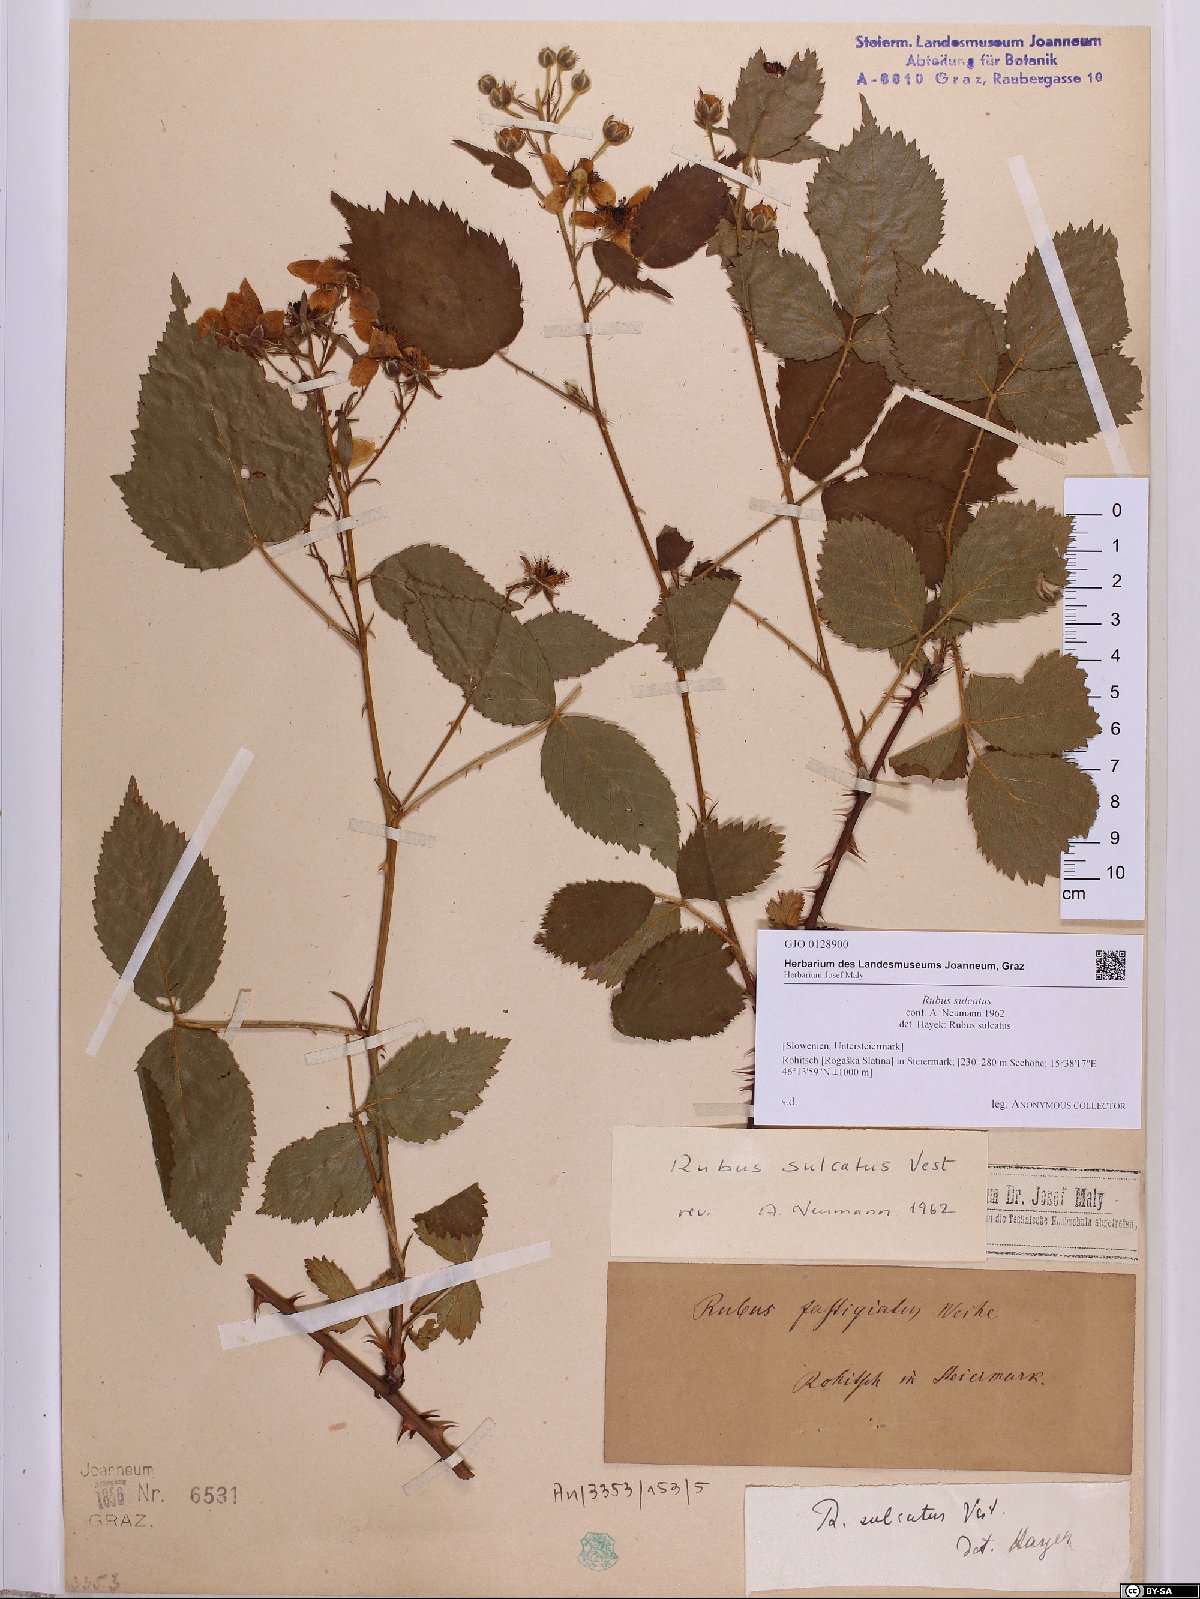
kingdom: Plantae
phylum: Tracheophyta
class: Magnoliopsida
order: Rosales
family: Rosaceae
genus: Rubus
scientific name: Rubus sulcatus
